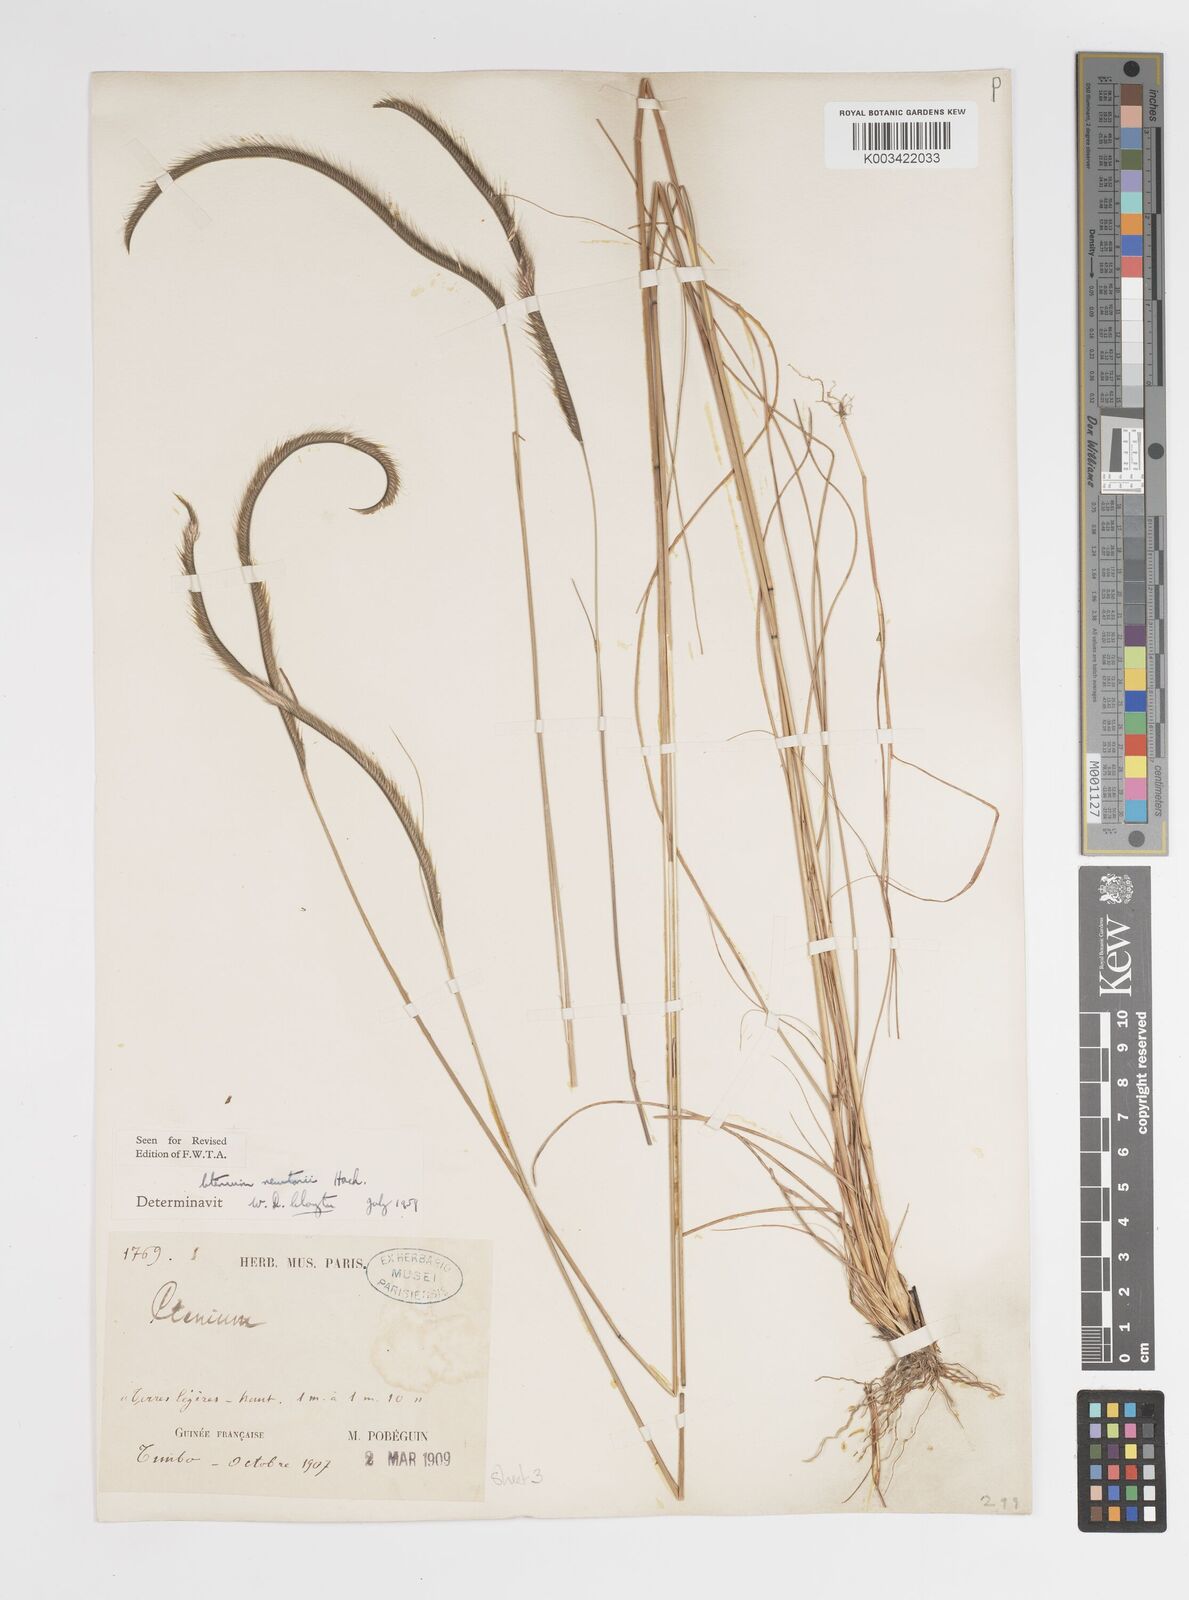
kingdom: Plantae
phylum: Tracheophyta
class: Liliopsida
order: Poales
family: Poaceae
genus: Ctenium
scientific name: Ctenium newtonii
